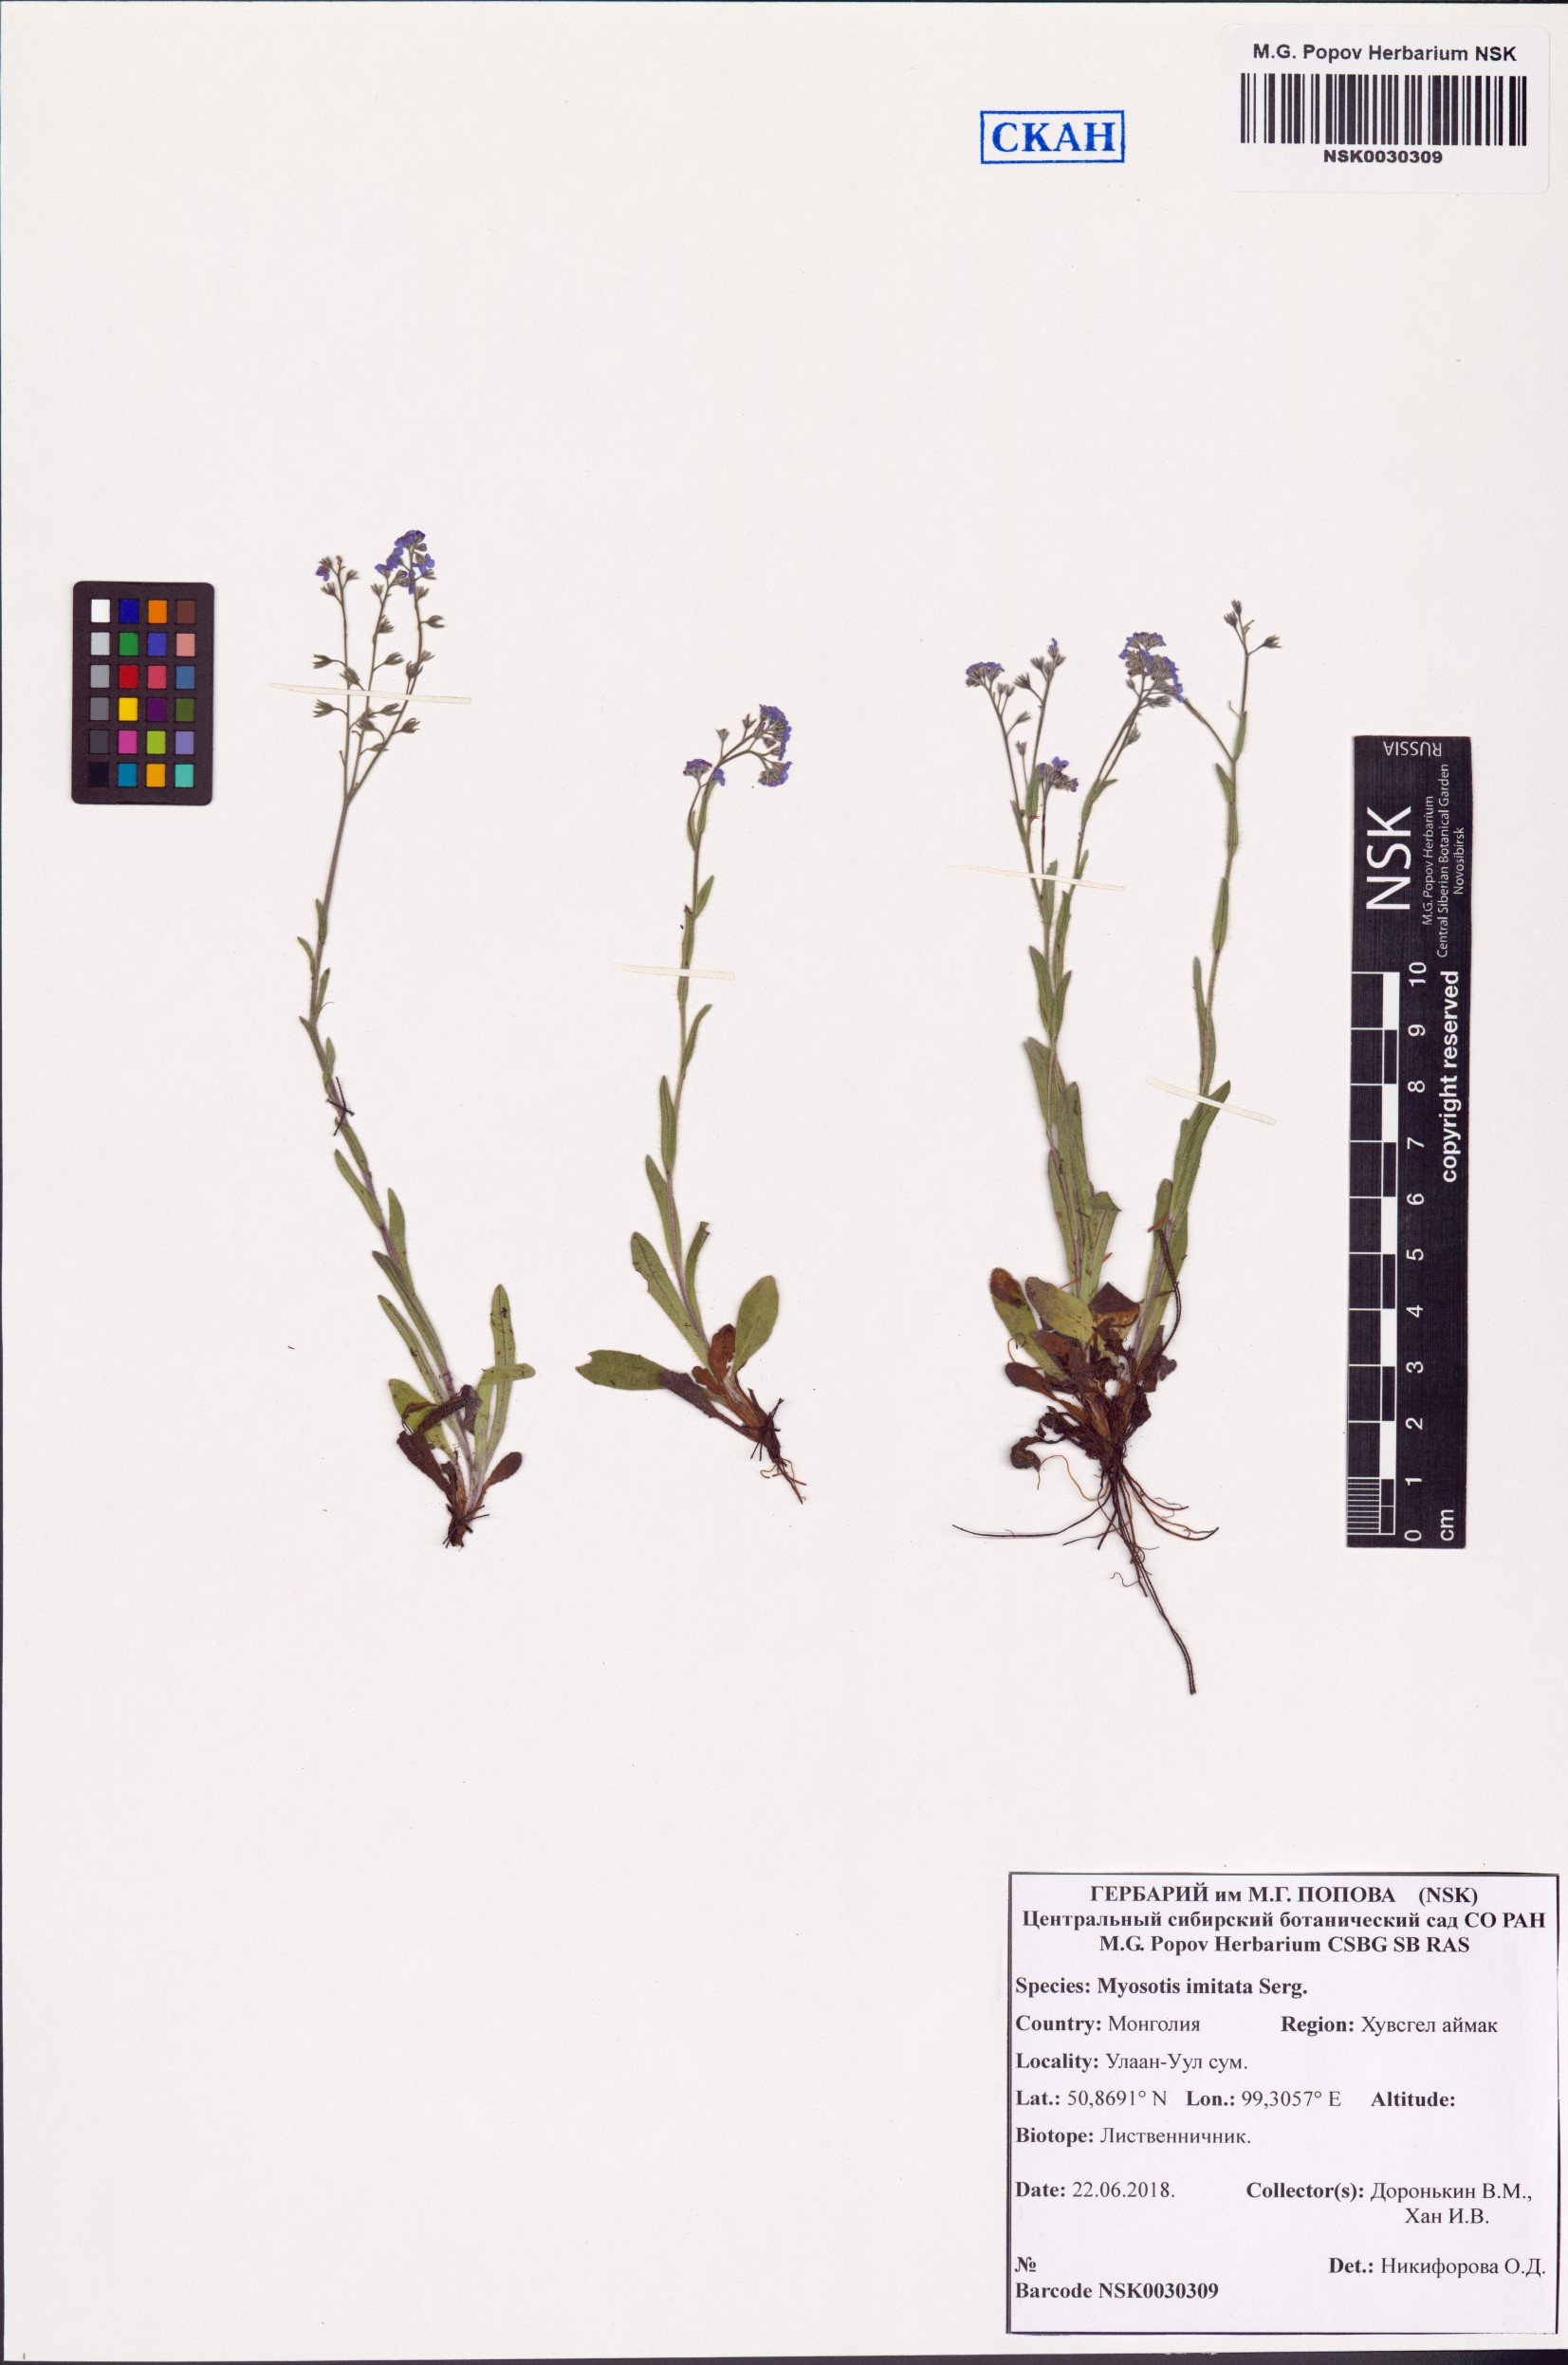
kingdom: Plantae
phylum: Tracheophyta
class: Magnoliopsida
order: Boraginales
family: Boraginaceae
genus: Myosotis
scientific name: Myosotis imitata
